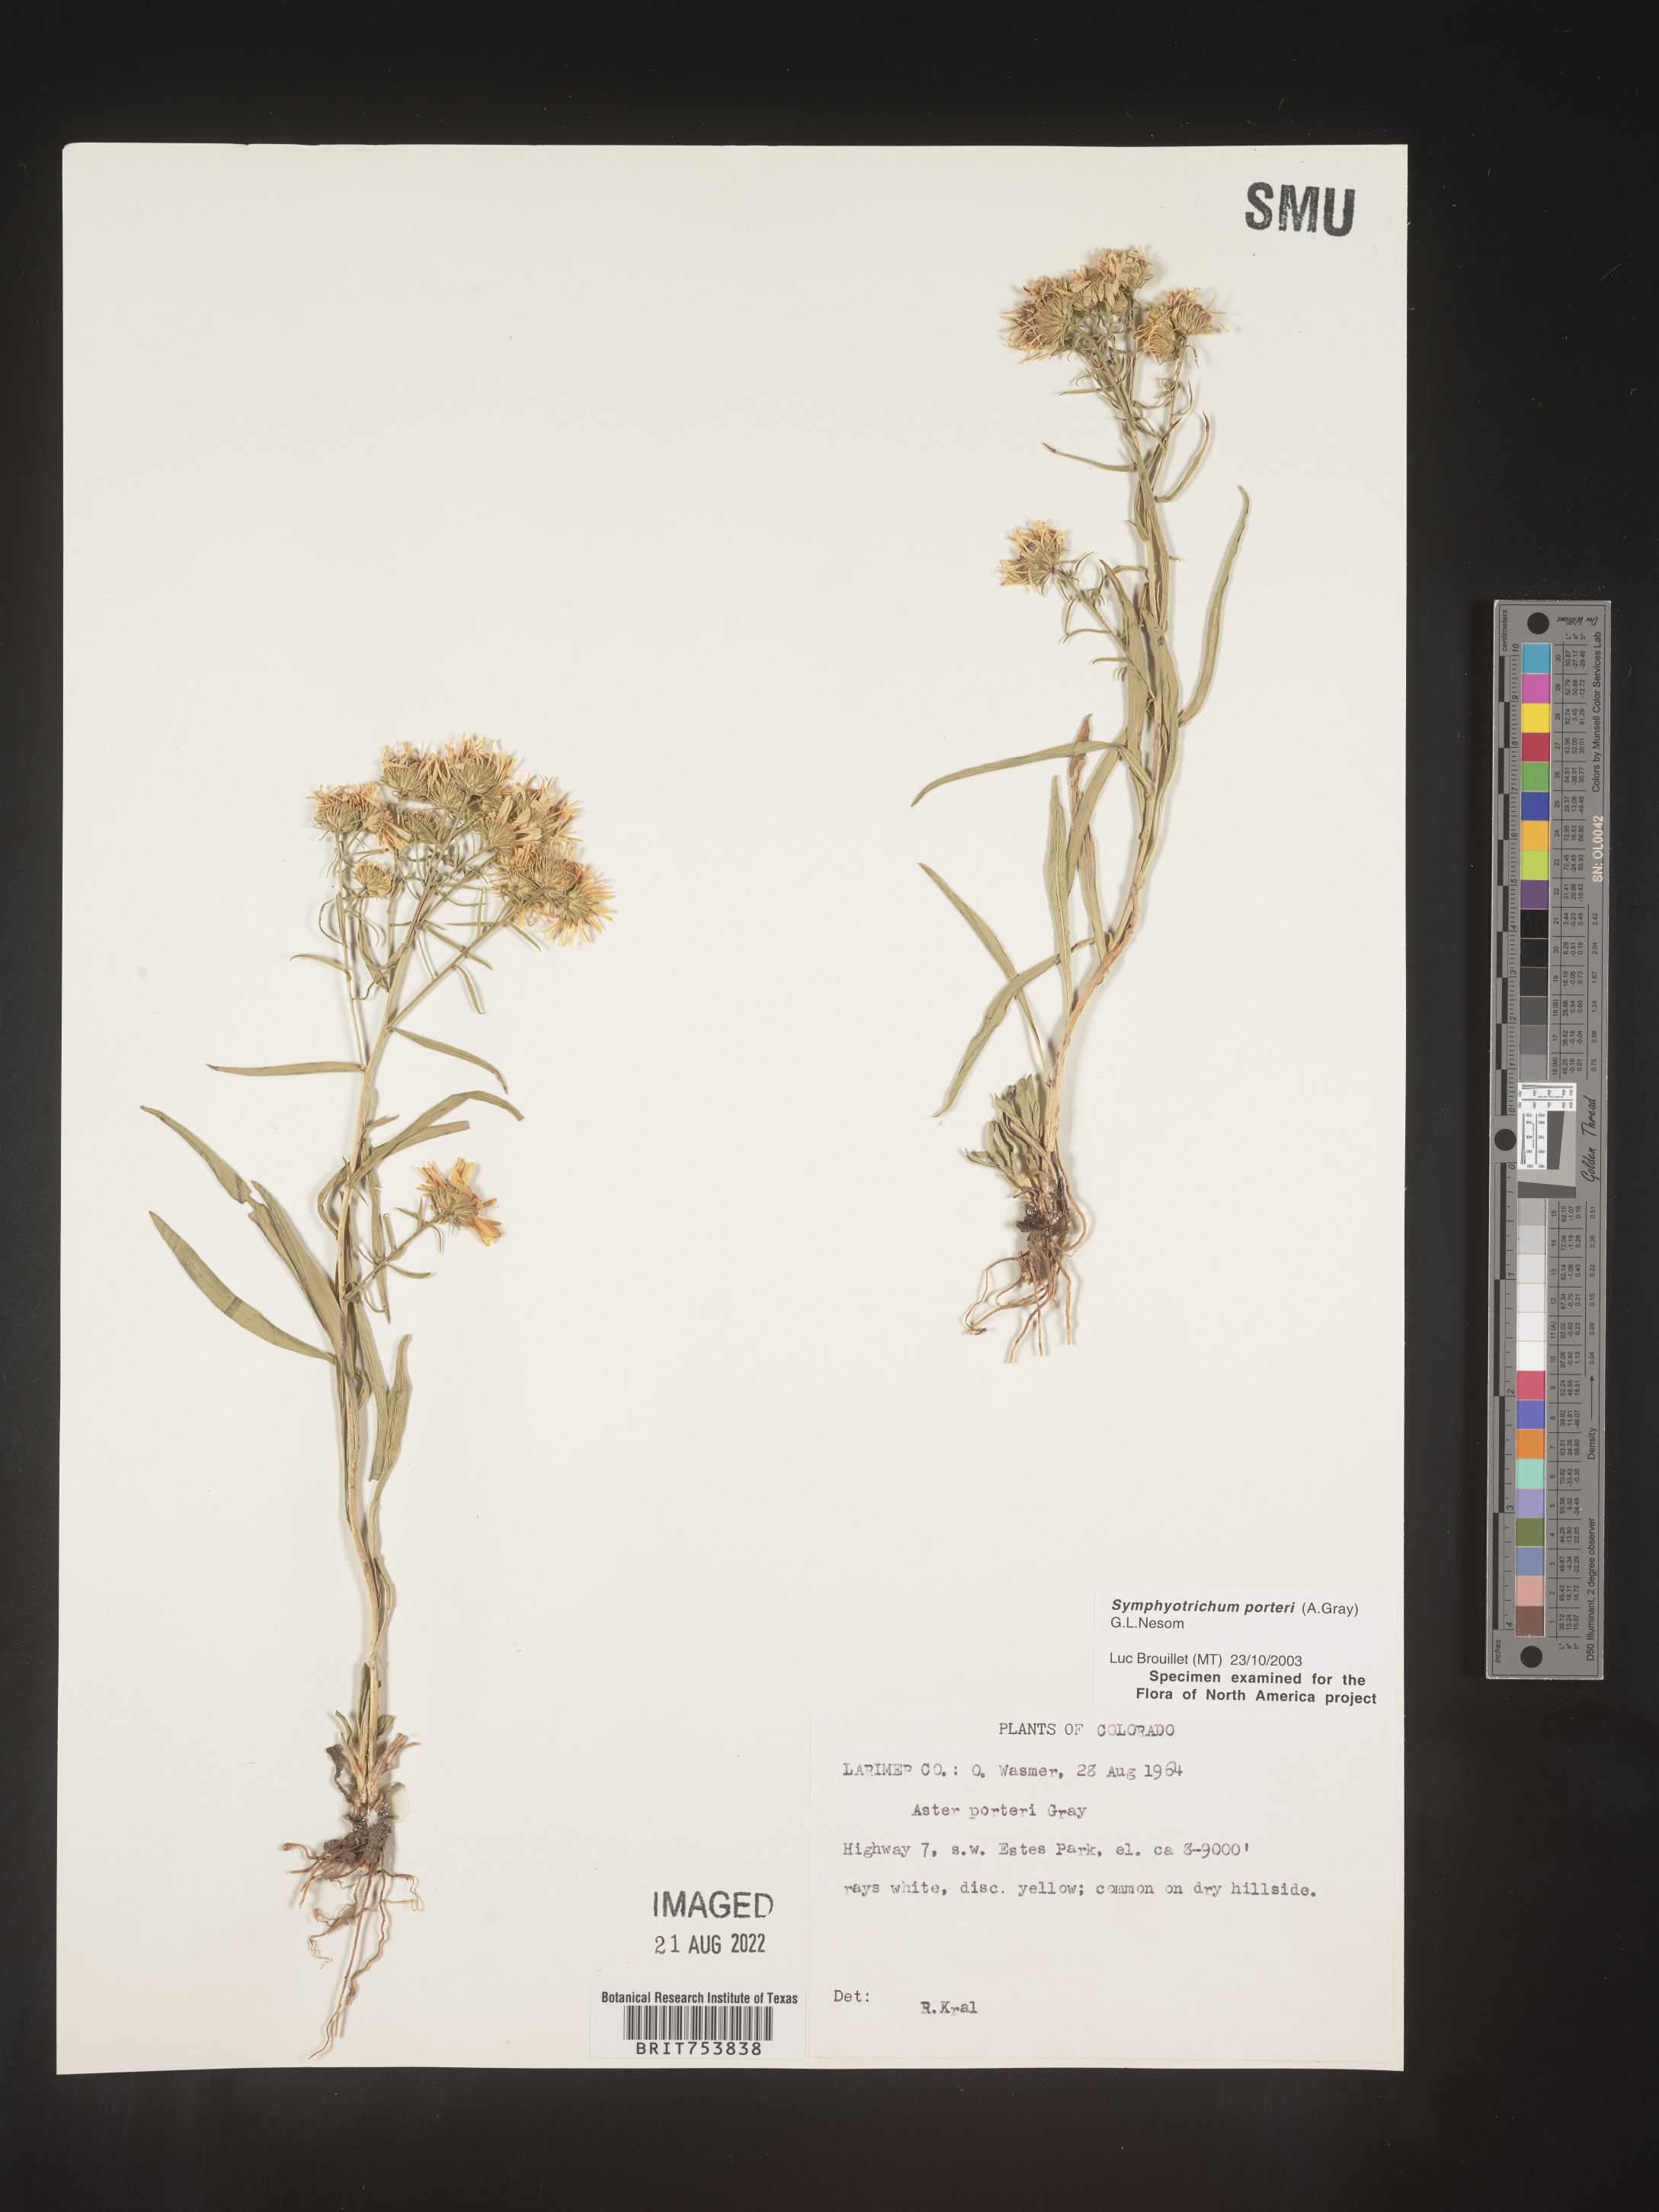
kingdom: Plantae
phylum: Tracheophyta
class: Magnoliopsida
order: Asterales
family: Asteraceae
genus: Symphyotrichum
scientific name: Symphyotrichum porteri
